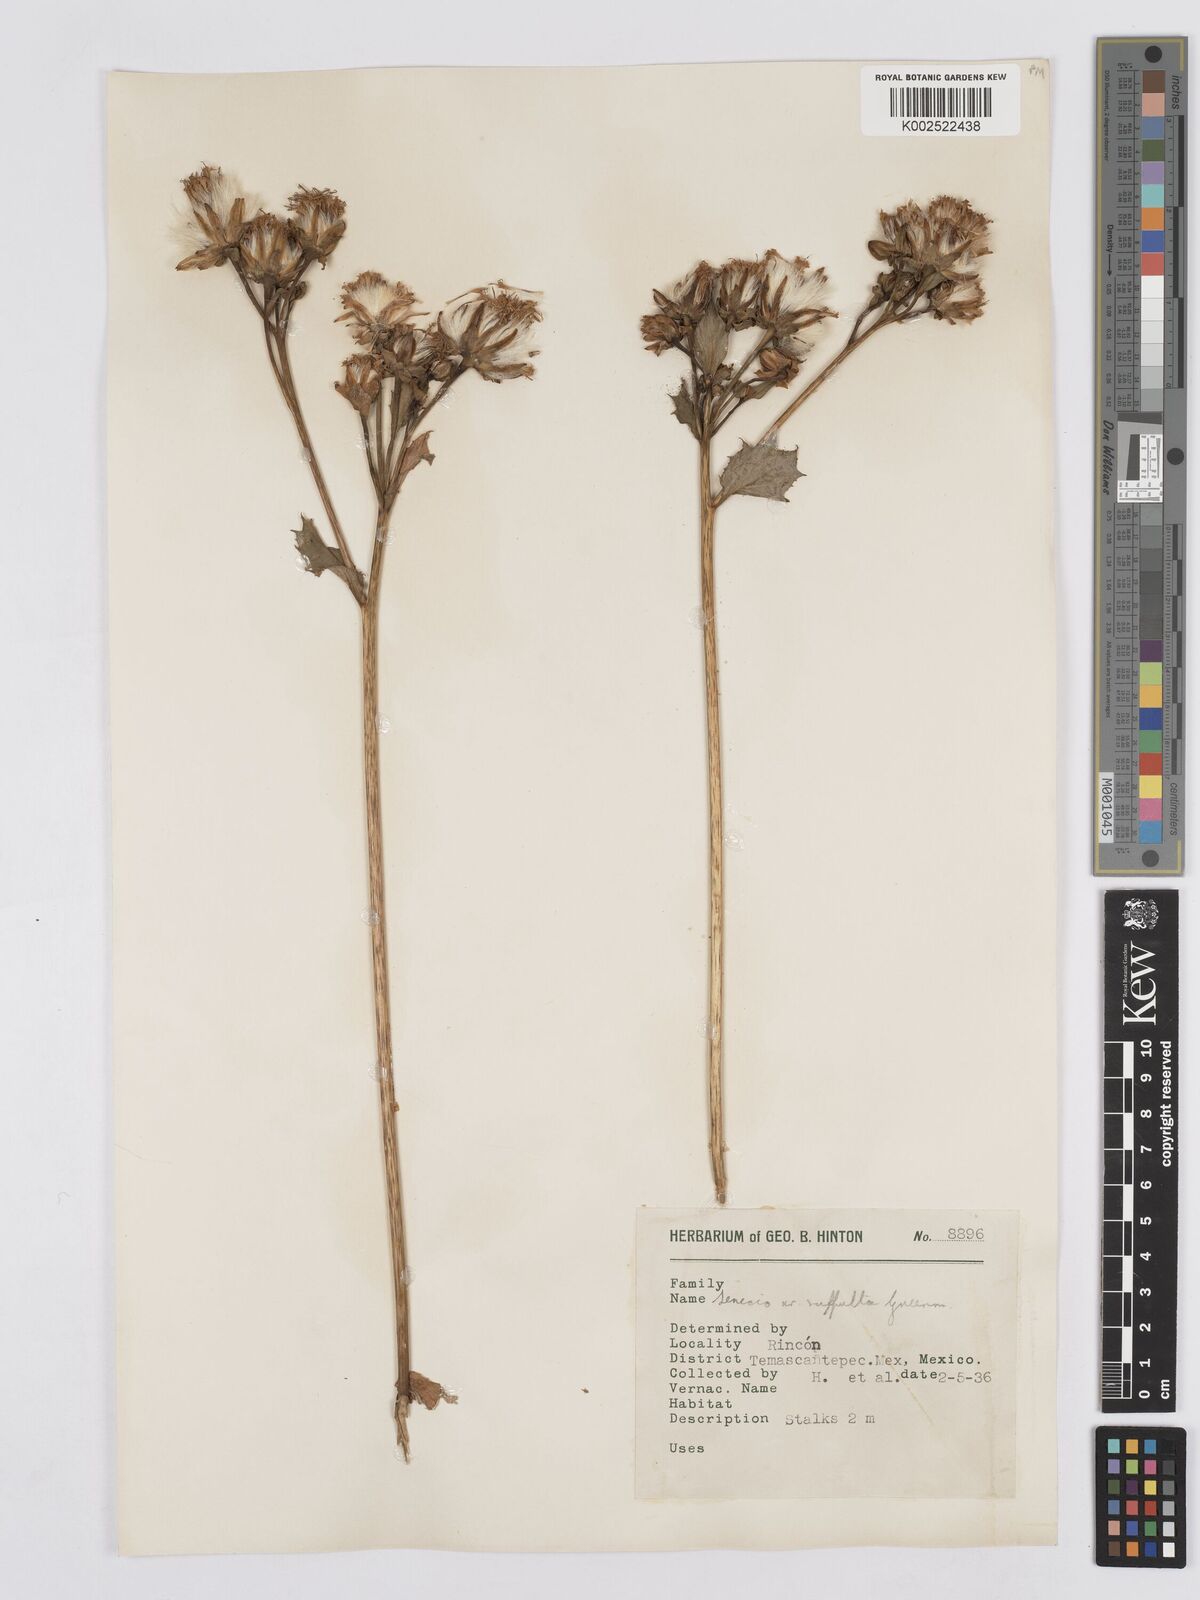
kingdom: Plantae
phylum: Tracheophyta
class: Magnoliopsida
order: Asterales
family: Asteraceae
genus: Roldana
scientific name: Roldana suffulta
